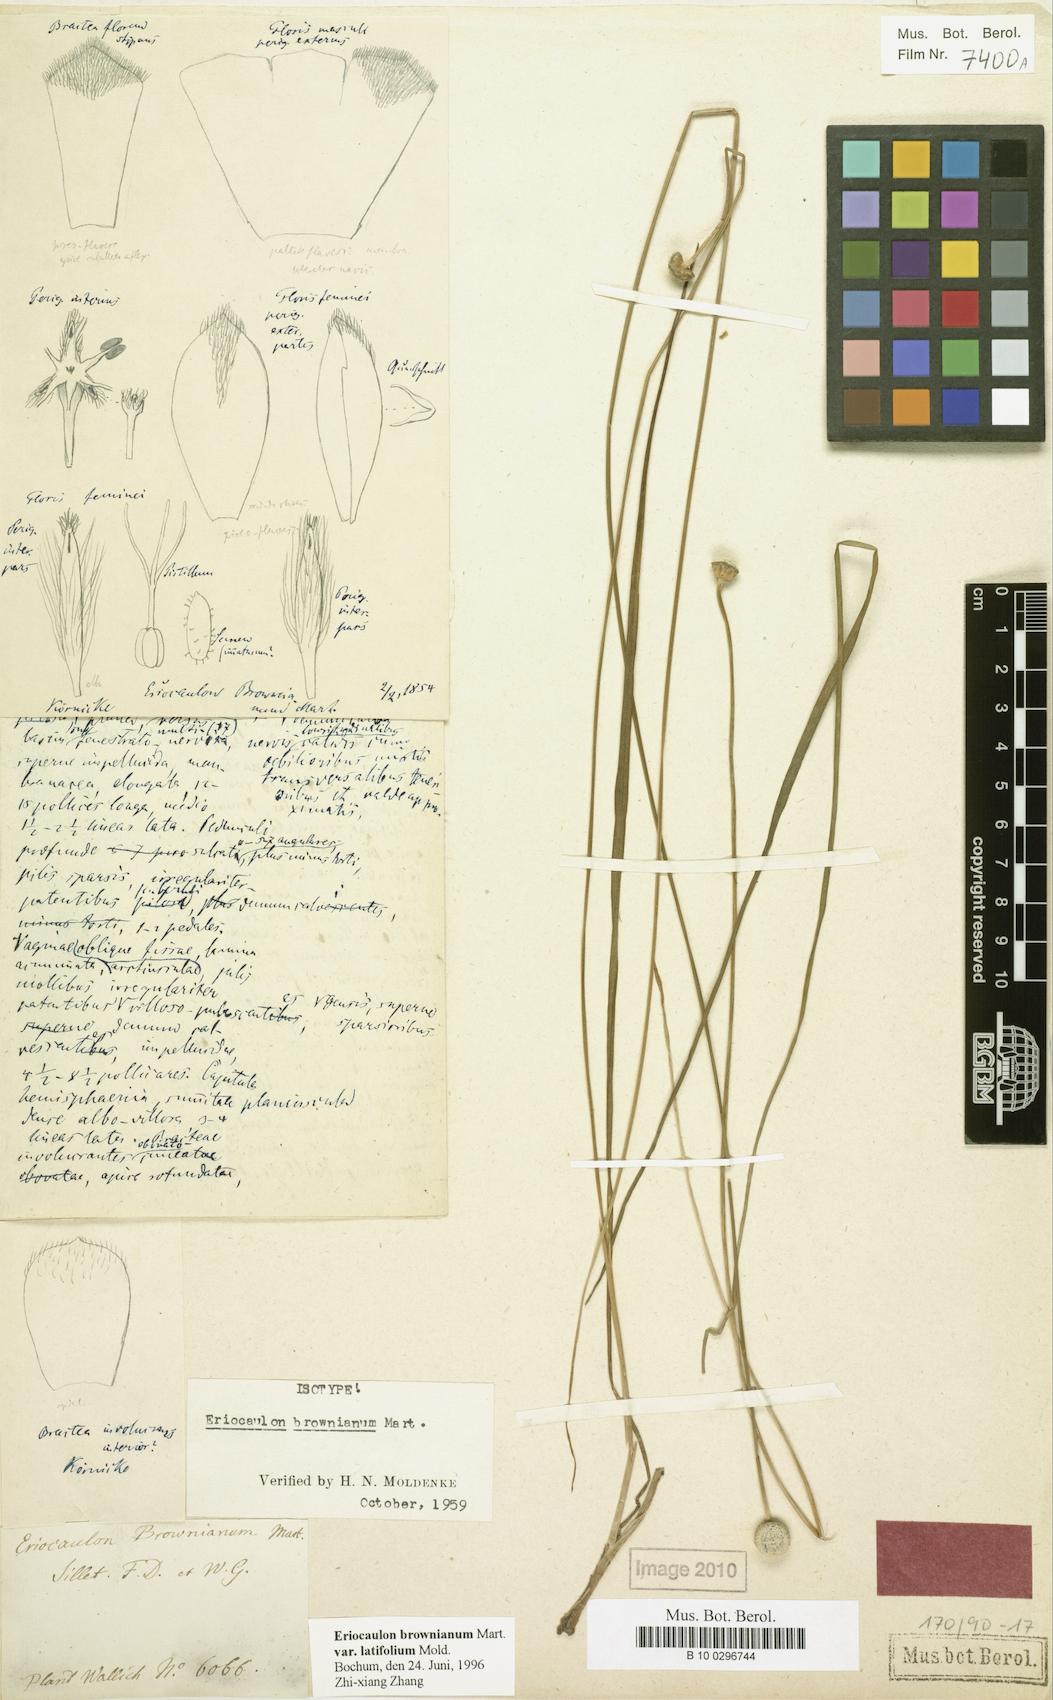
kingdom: Plantae
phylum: Tracheophyta
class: Liliopsida
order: Poales
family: Eriocaulaceae
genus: Eriocaulon
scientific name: Eriocaulon brownianum
